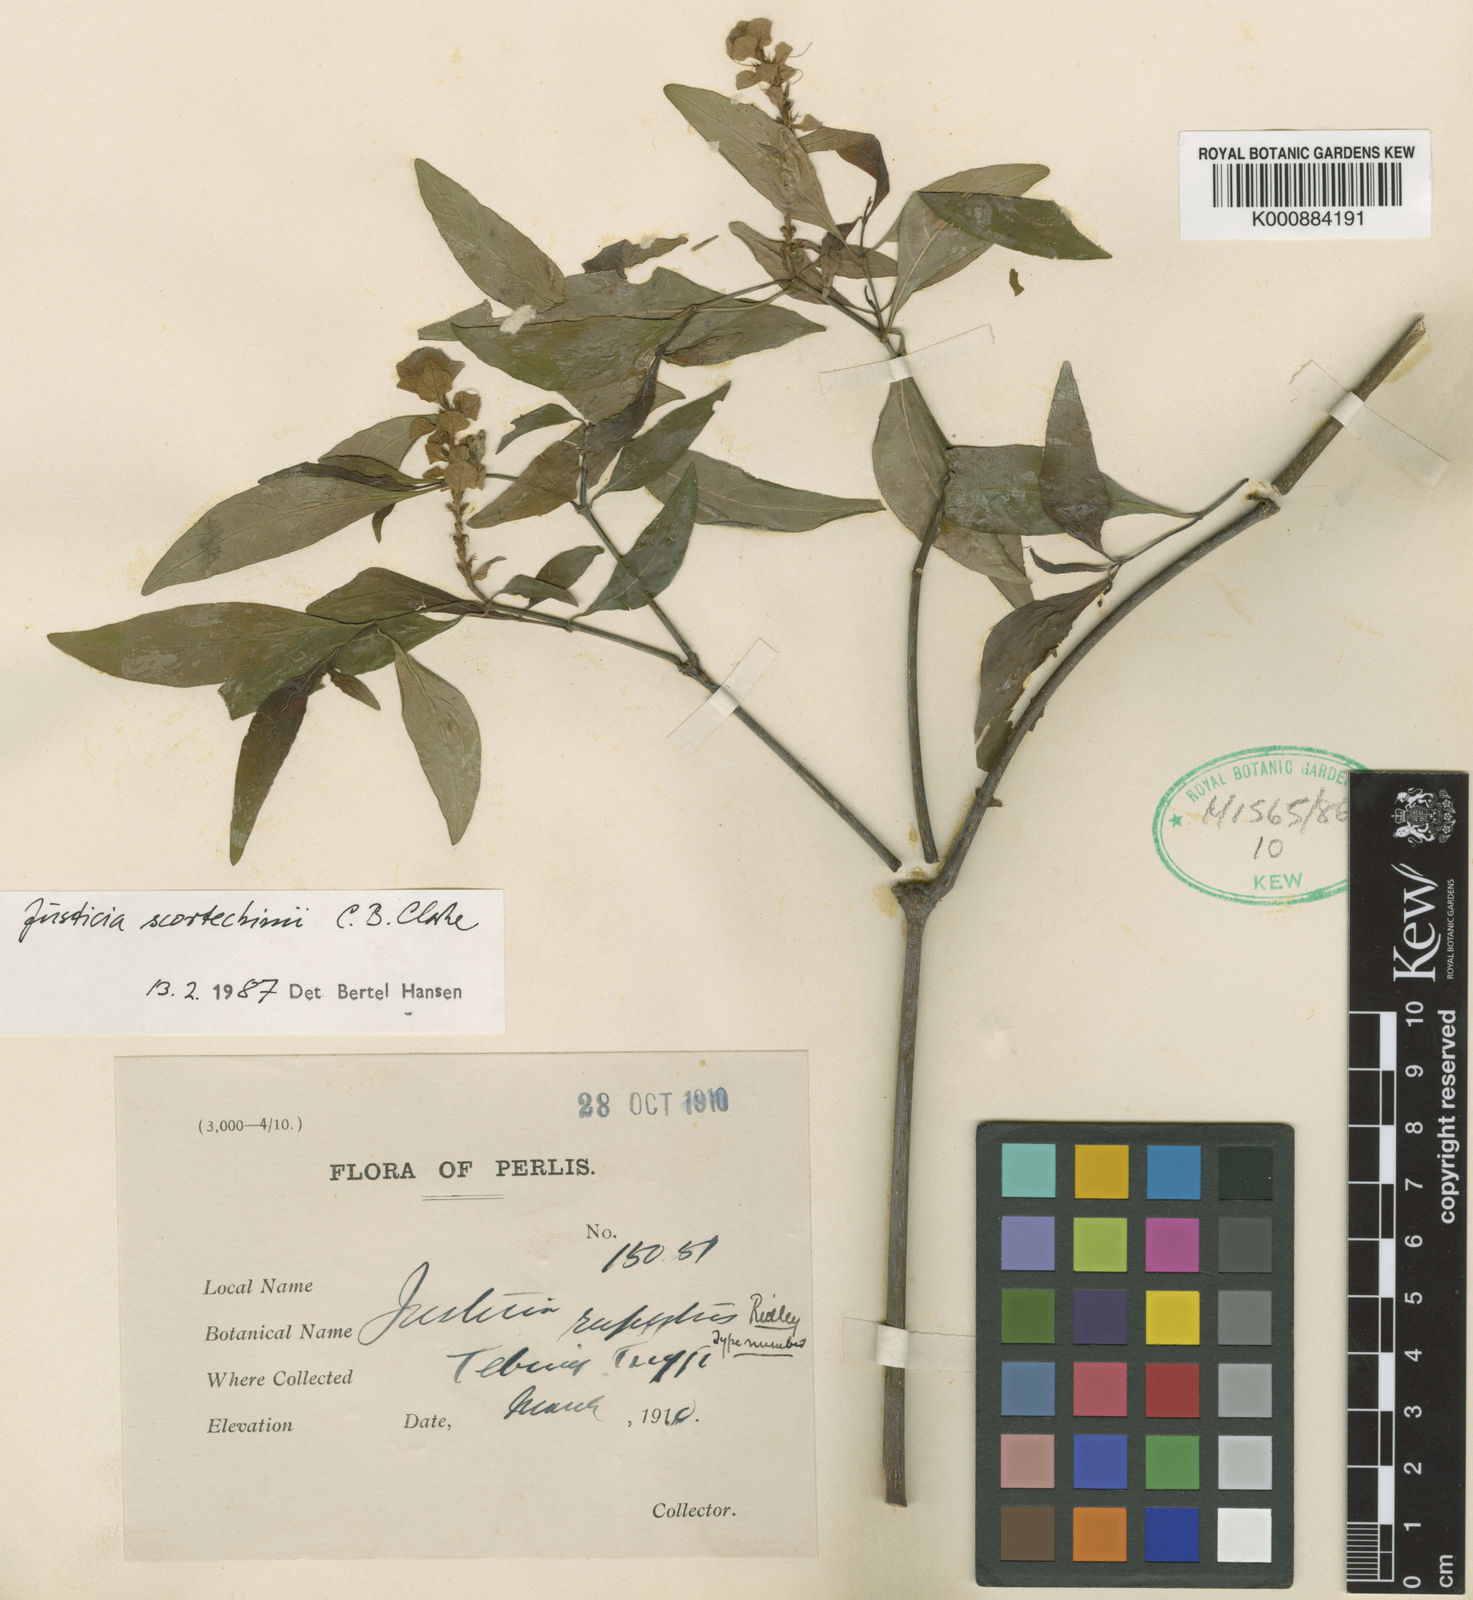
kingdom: Plantae
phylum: Tracheophyta
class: Magnoliopsida
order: Lamiales
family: Acanthaceae
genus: Justicia
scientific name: Justicia scortechinii
